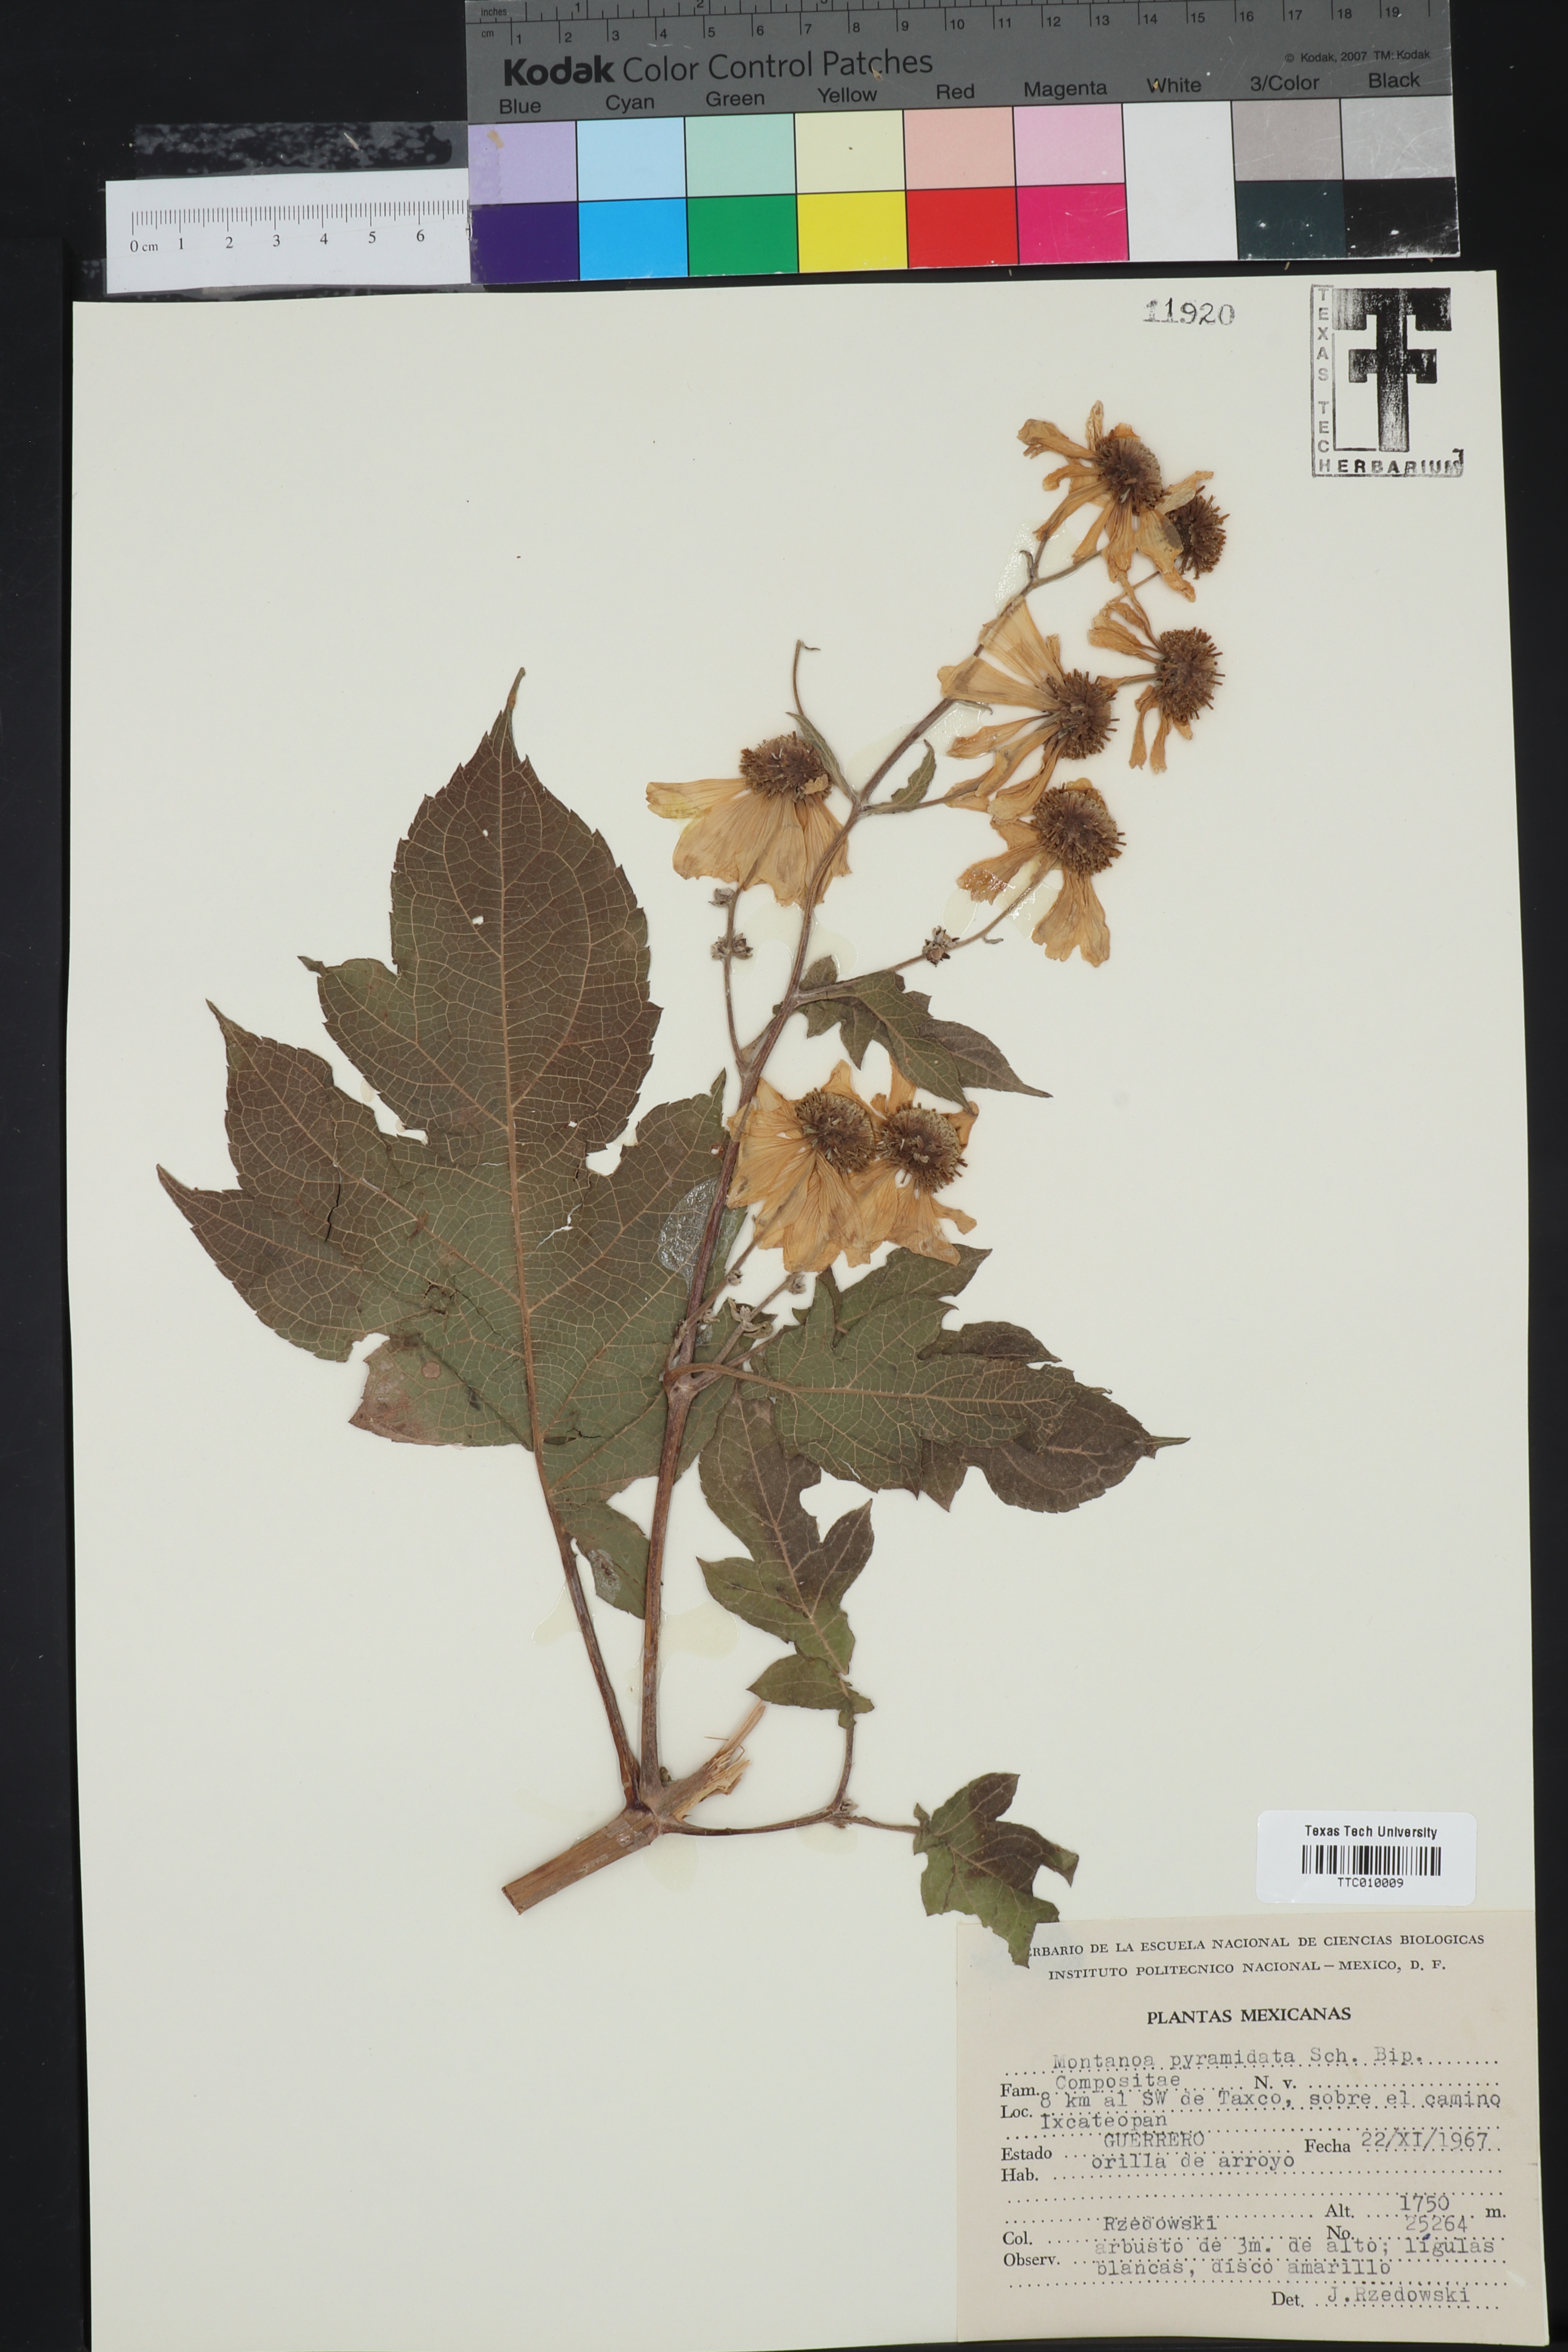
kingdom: Plantae
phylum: Tracheophyta
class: Magnoliopsida
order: Asterales
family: Asteraceae
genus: Montanoa
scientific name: Montanoa bipinnatifida
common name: Mexican daisy bush
